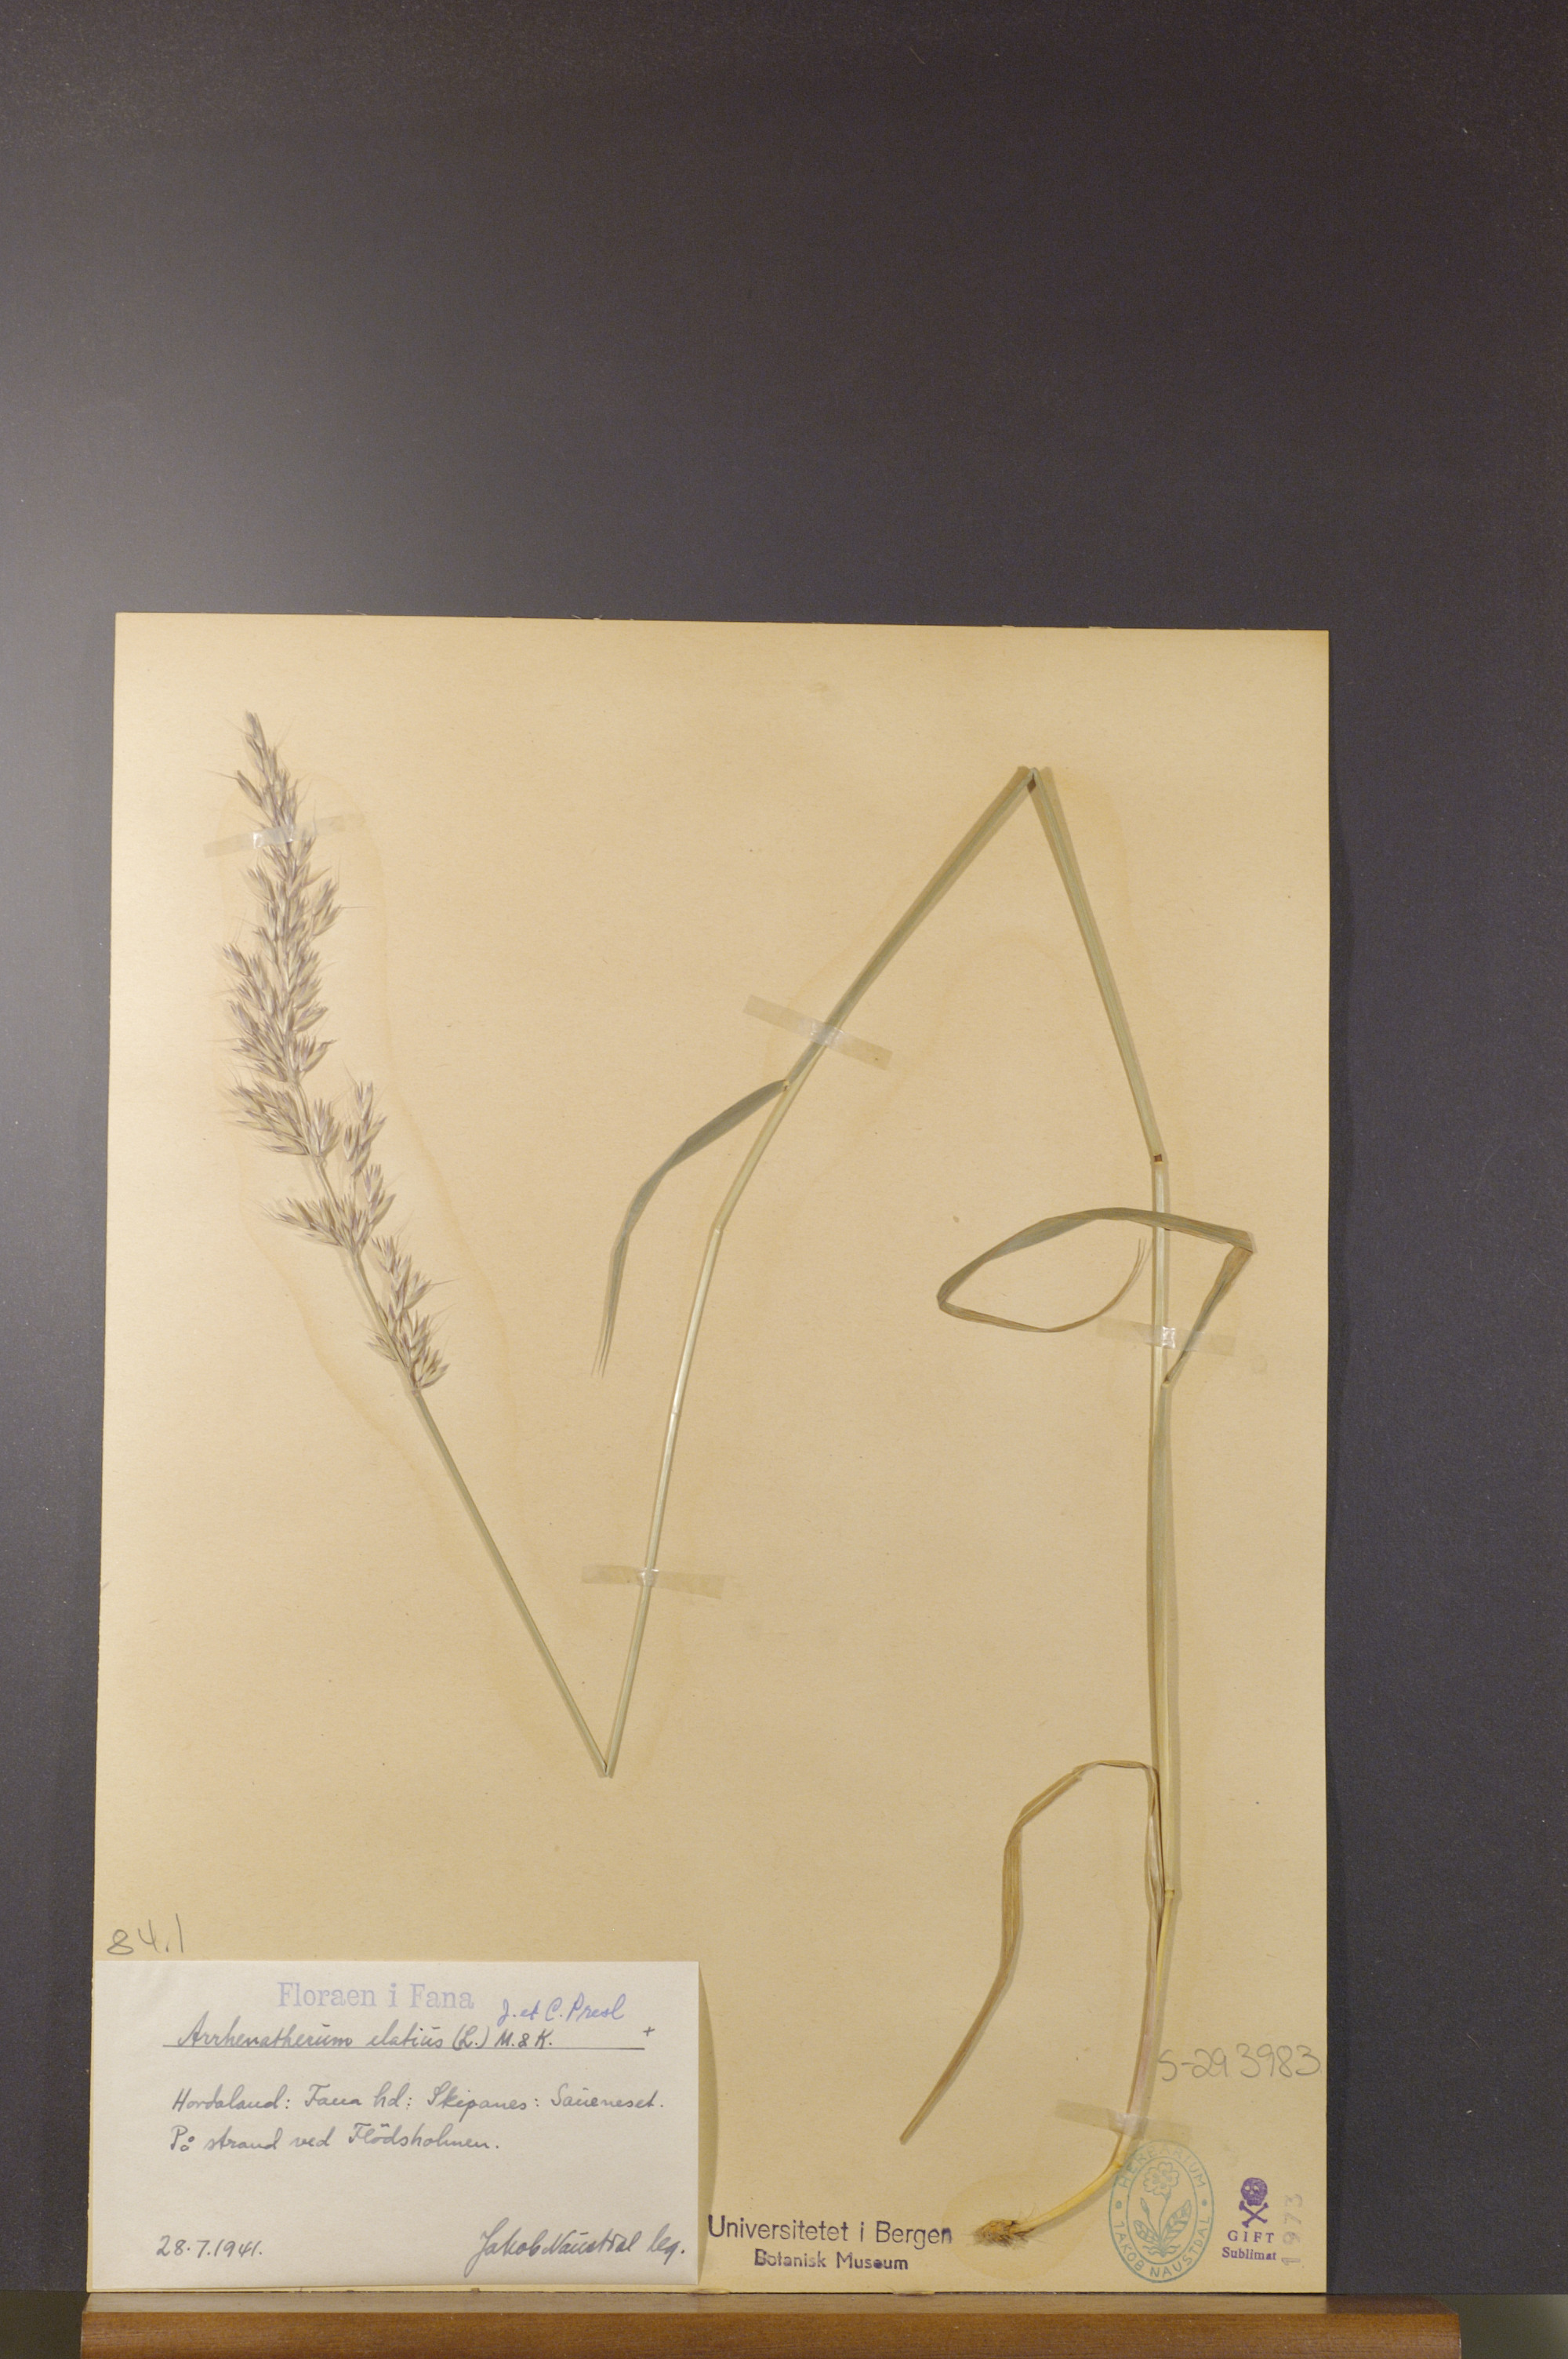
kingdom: Plantae
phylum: Tracheophyta
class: Liliopsida
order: Poales
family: Poaceae
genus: Arrhenatherum
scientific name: Arrhenatherum elatius
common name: Tall oatgrass
